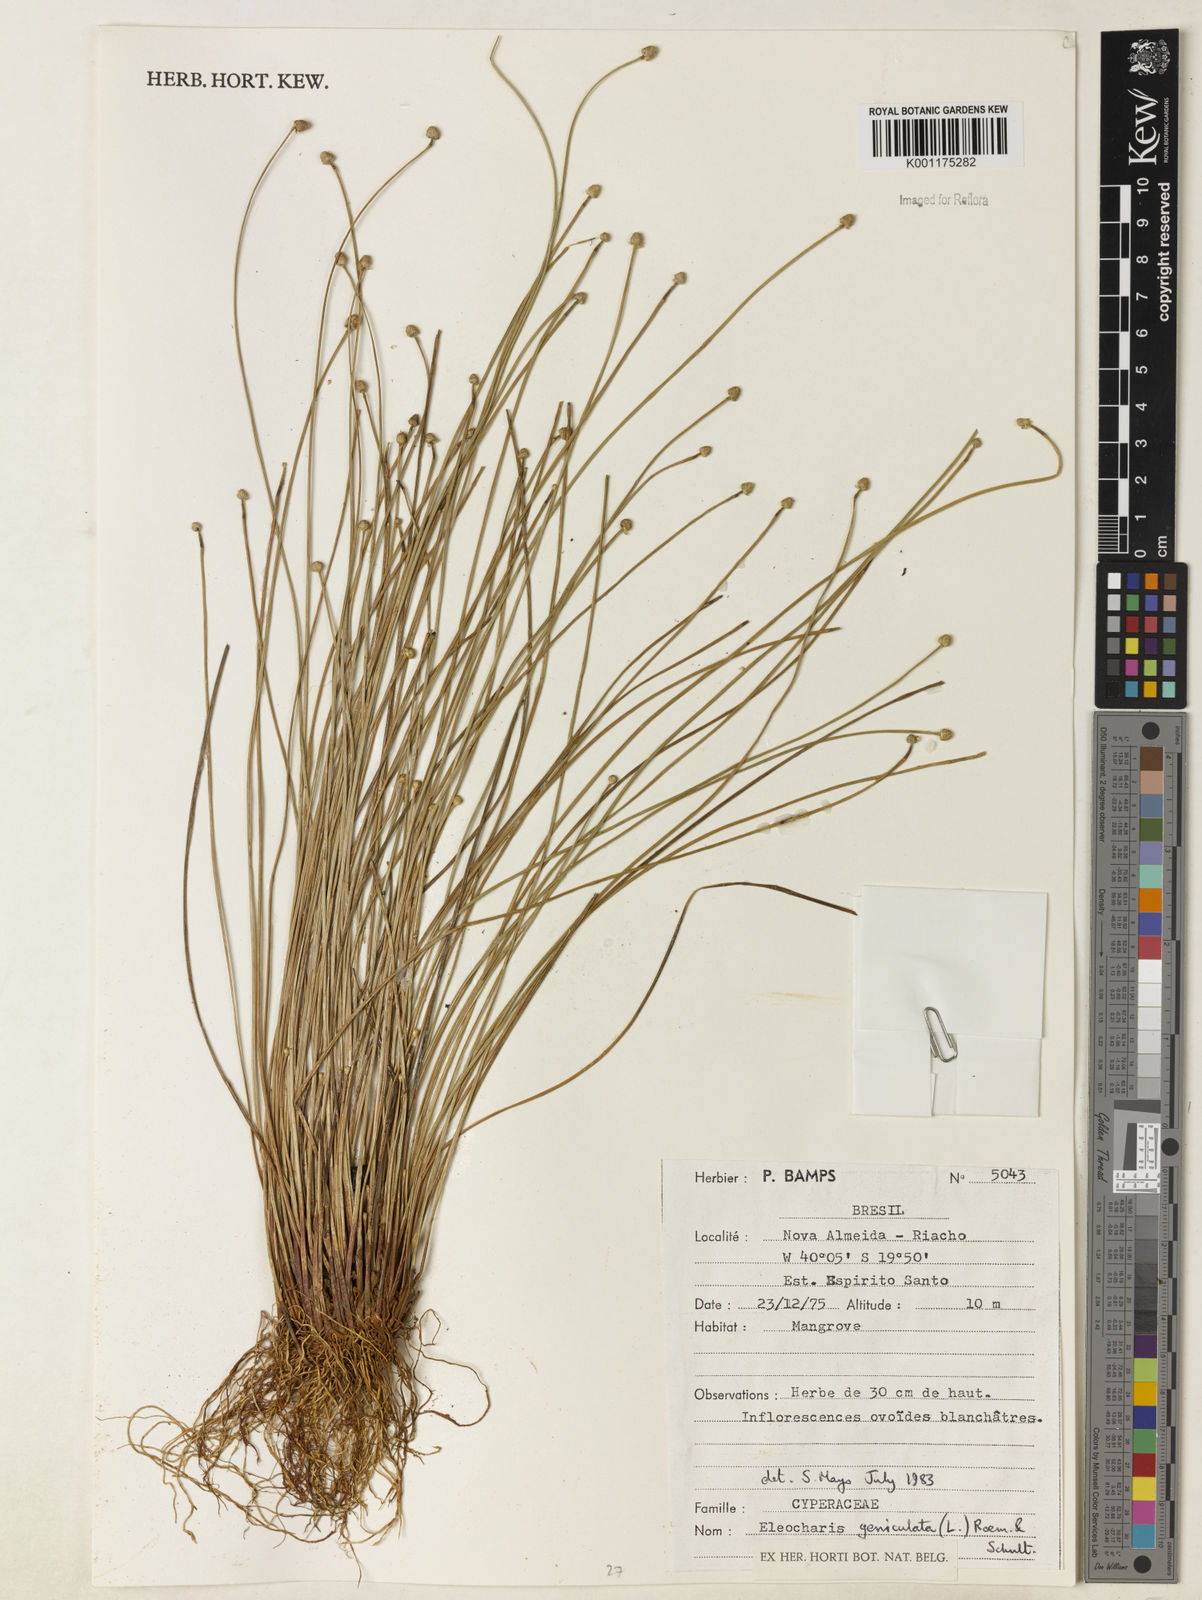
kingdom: Plantae
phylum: Tracheophyta
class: Liliopsida
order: Poales
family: Cyperaceae
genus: Eleocharis
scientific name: Eleocharis geniculata
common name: Canada spikesedge
